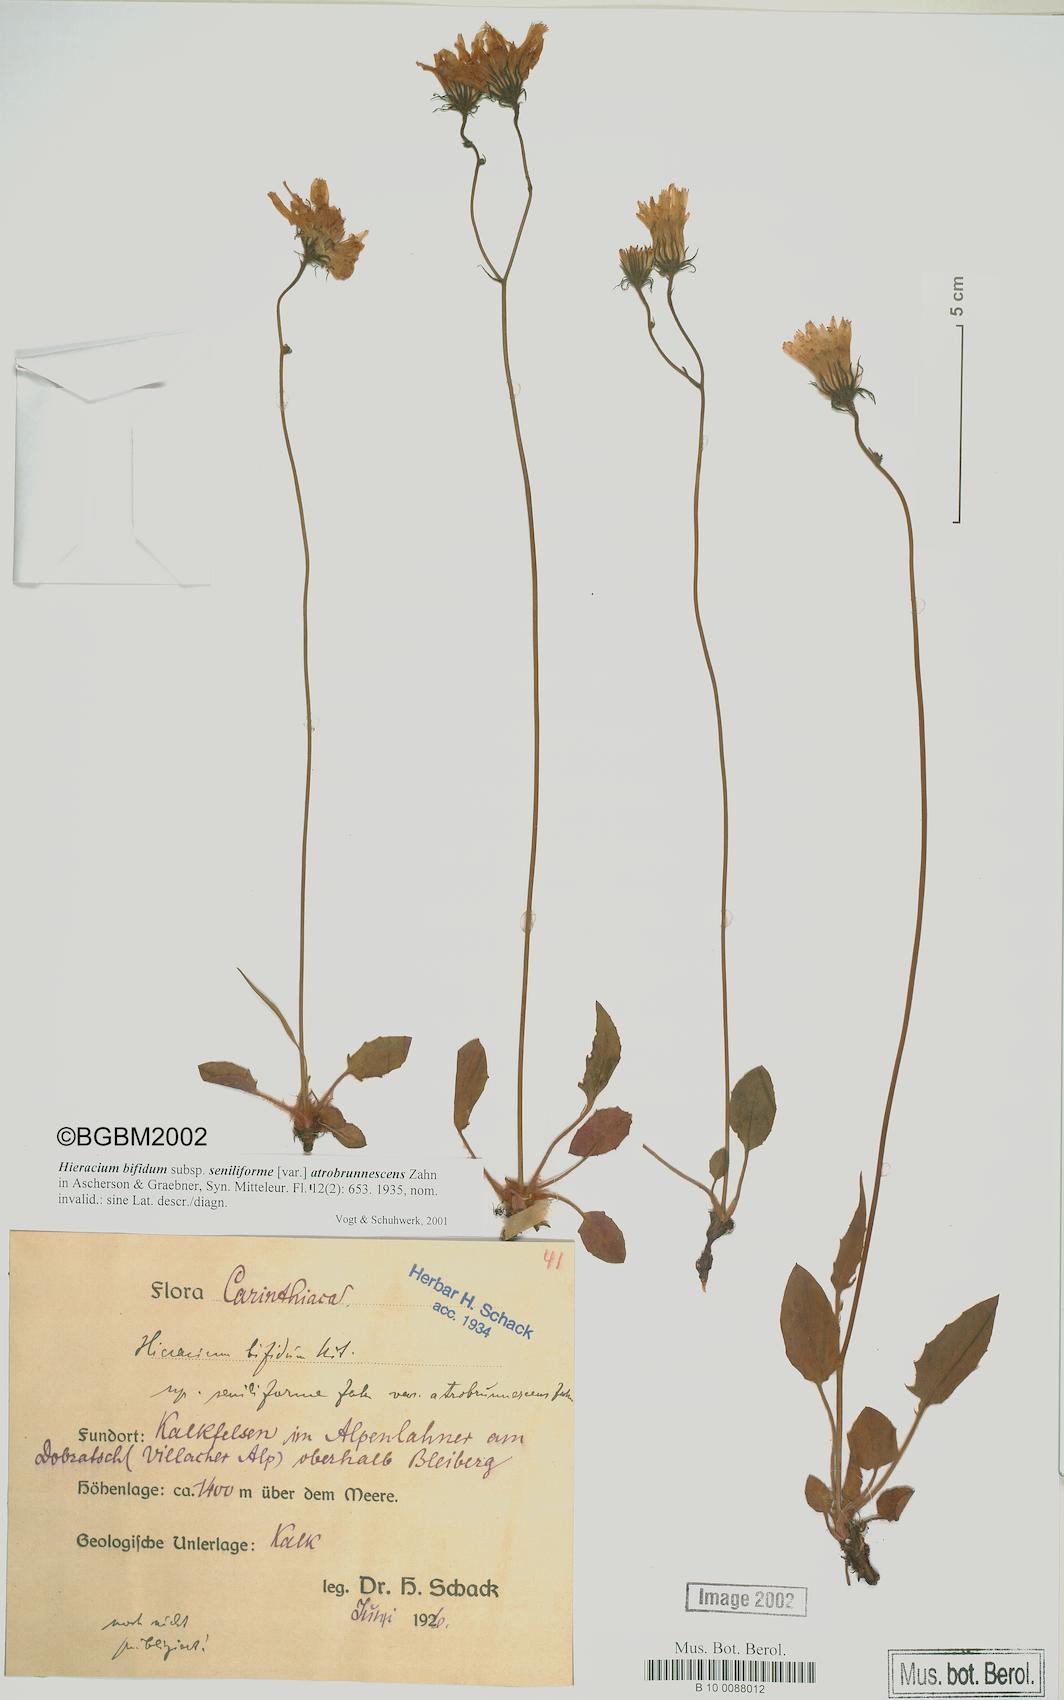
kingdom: Plantae
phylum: Tracheophyta
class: Magnoliopsida
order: Asterales
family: Asteraceae
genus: Hieracium
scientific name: Hieracium bifidum
